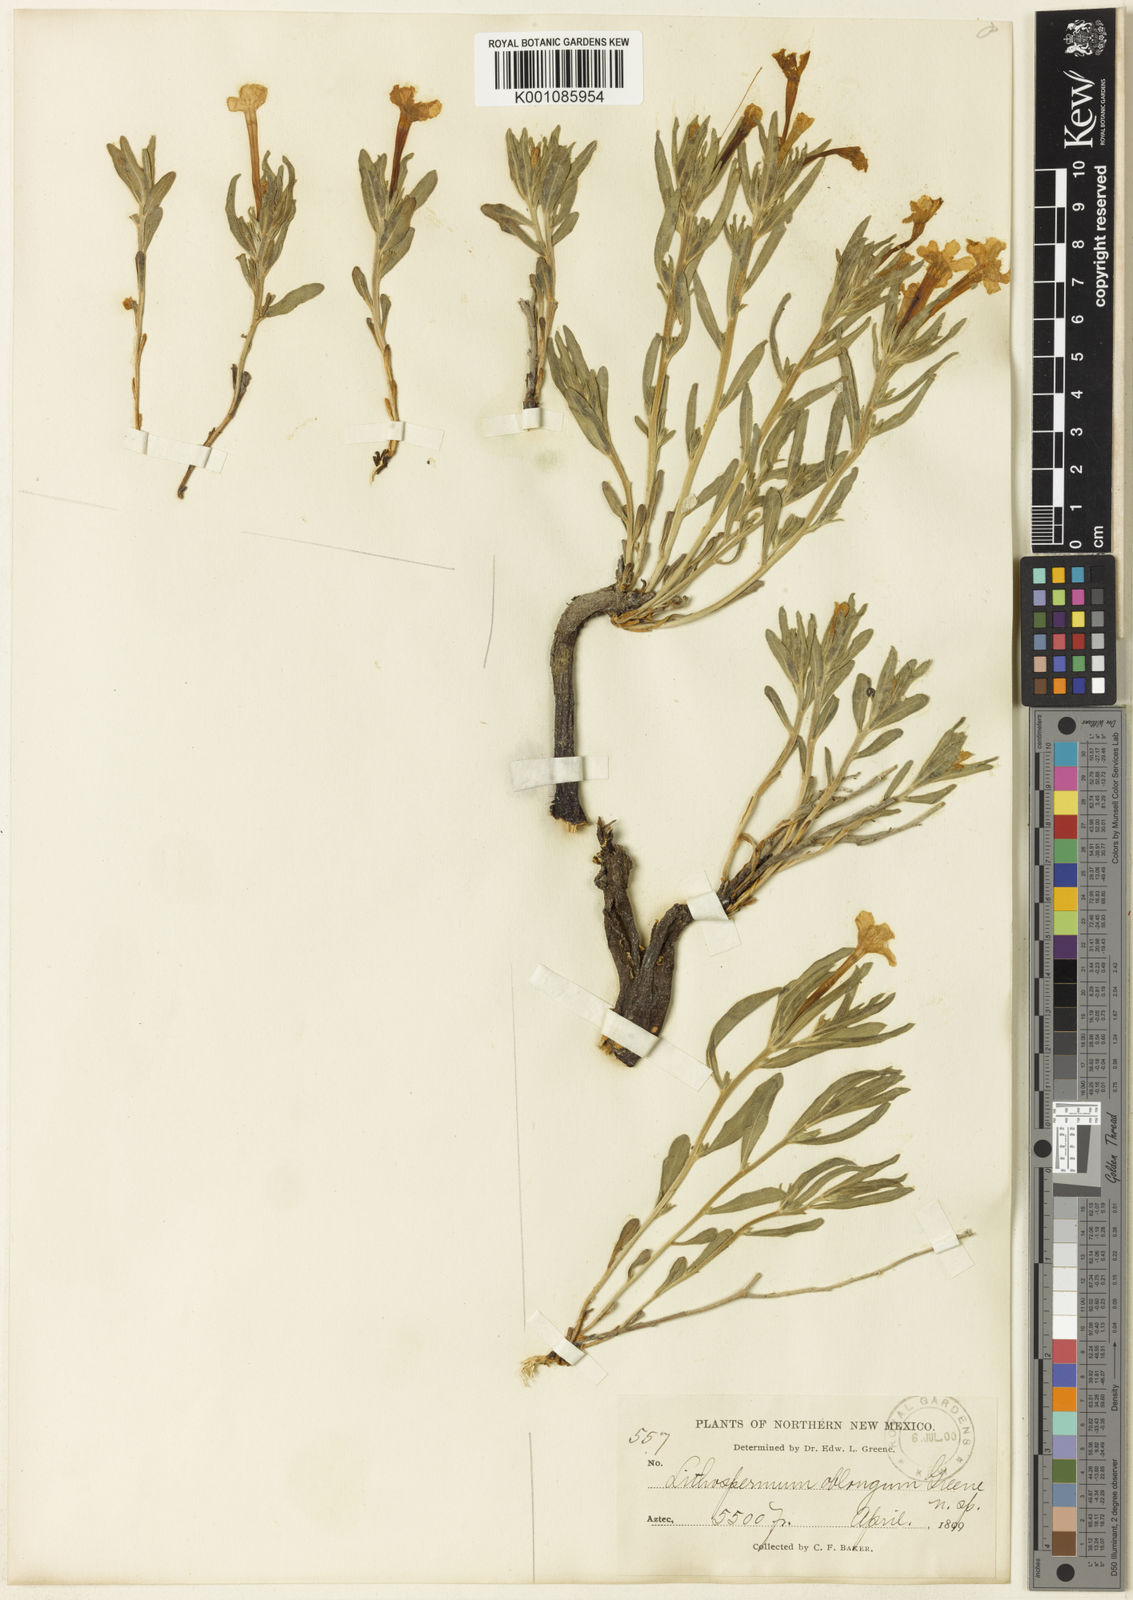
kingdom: Plantae
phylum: Tracheophyta
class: Magnoliopsida
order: Boraginales
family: Boraginaceae
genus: Lithospermum
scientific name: Lithospermum incisum
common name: Fringed gromwell
